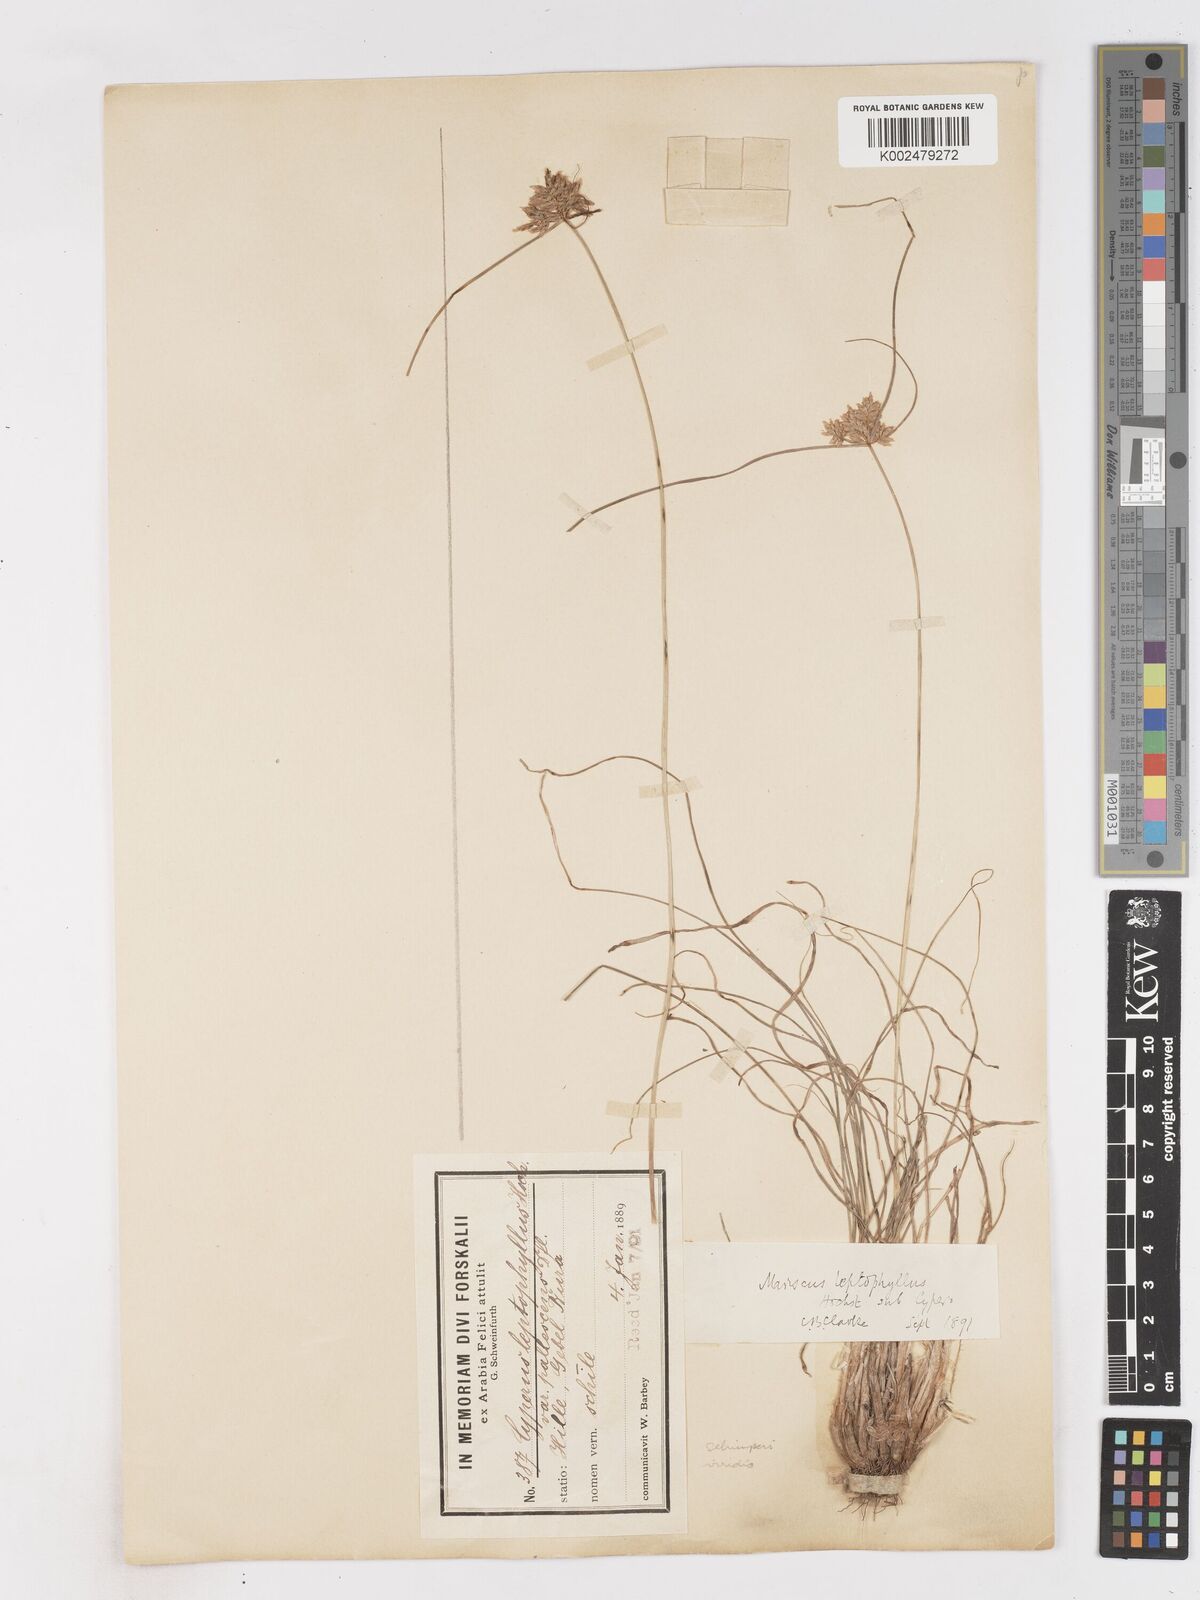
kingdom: Plantae
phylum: Tracheophyta
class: Liliopsida
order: Poales
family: Cyperaceae
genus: Cyperus
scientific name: Cyperus cruentus
